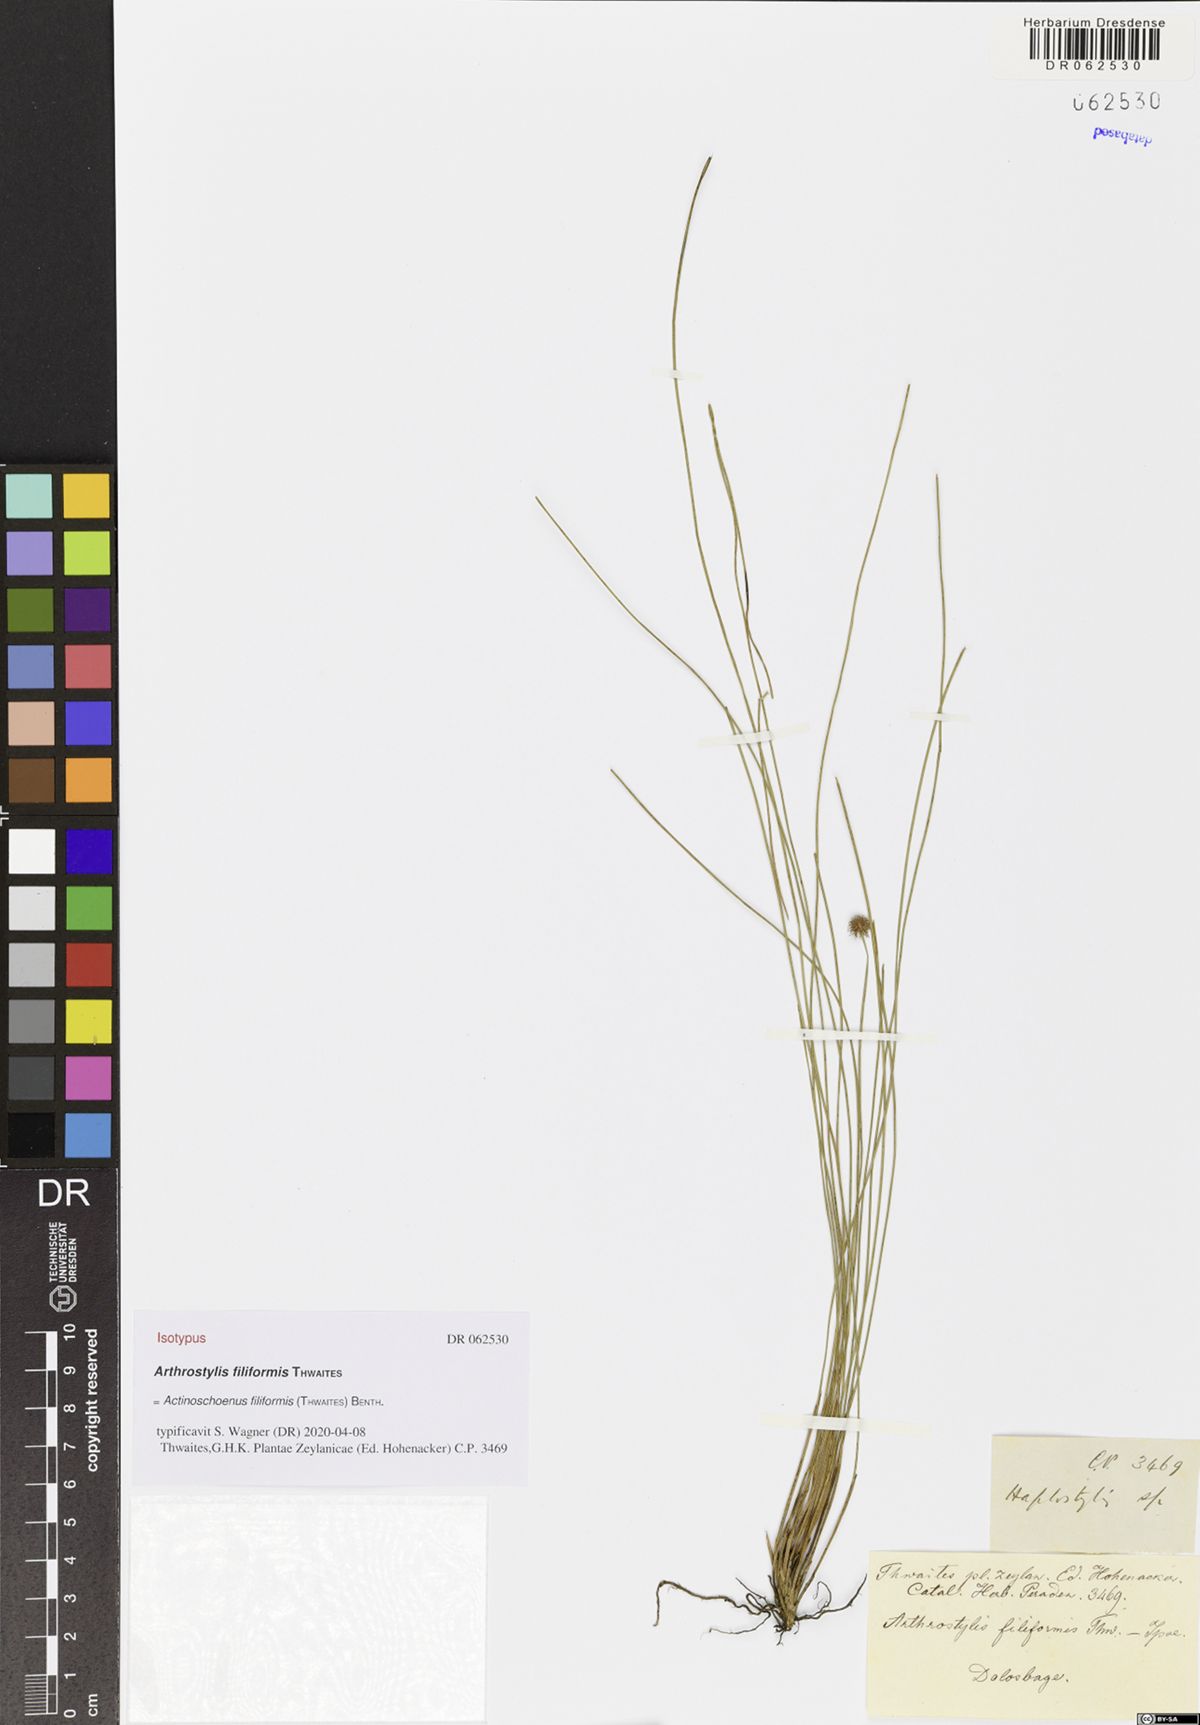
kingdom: Plantae
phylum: Tracheophyta
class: Liliopsida
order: Poales
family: Cyperaceae
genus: Actinoschoenus
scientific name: Actinoschoenus aphyllus
